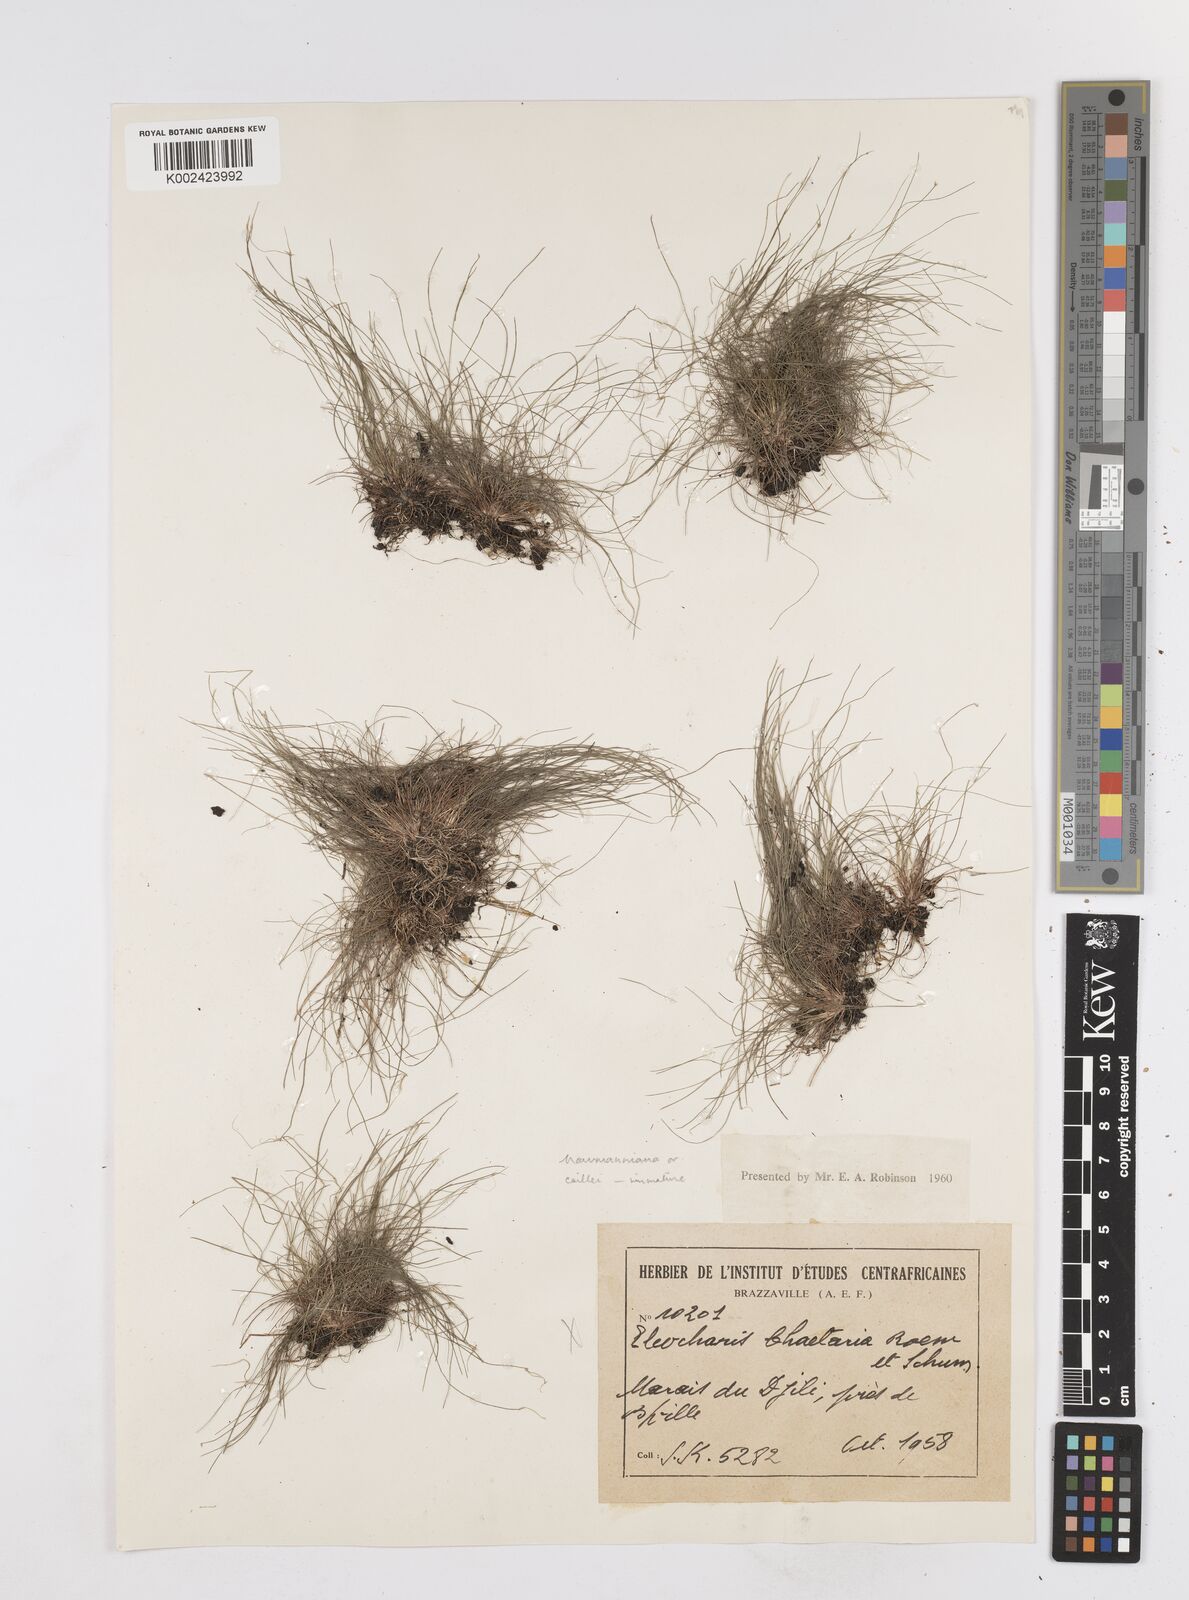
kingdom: Plantae
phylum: Tracheophyta
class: Liliopsida
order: Poales
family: Cyperaceae
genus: Eleocharis
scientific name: Eleocharis naumanniana
